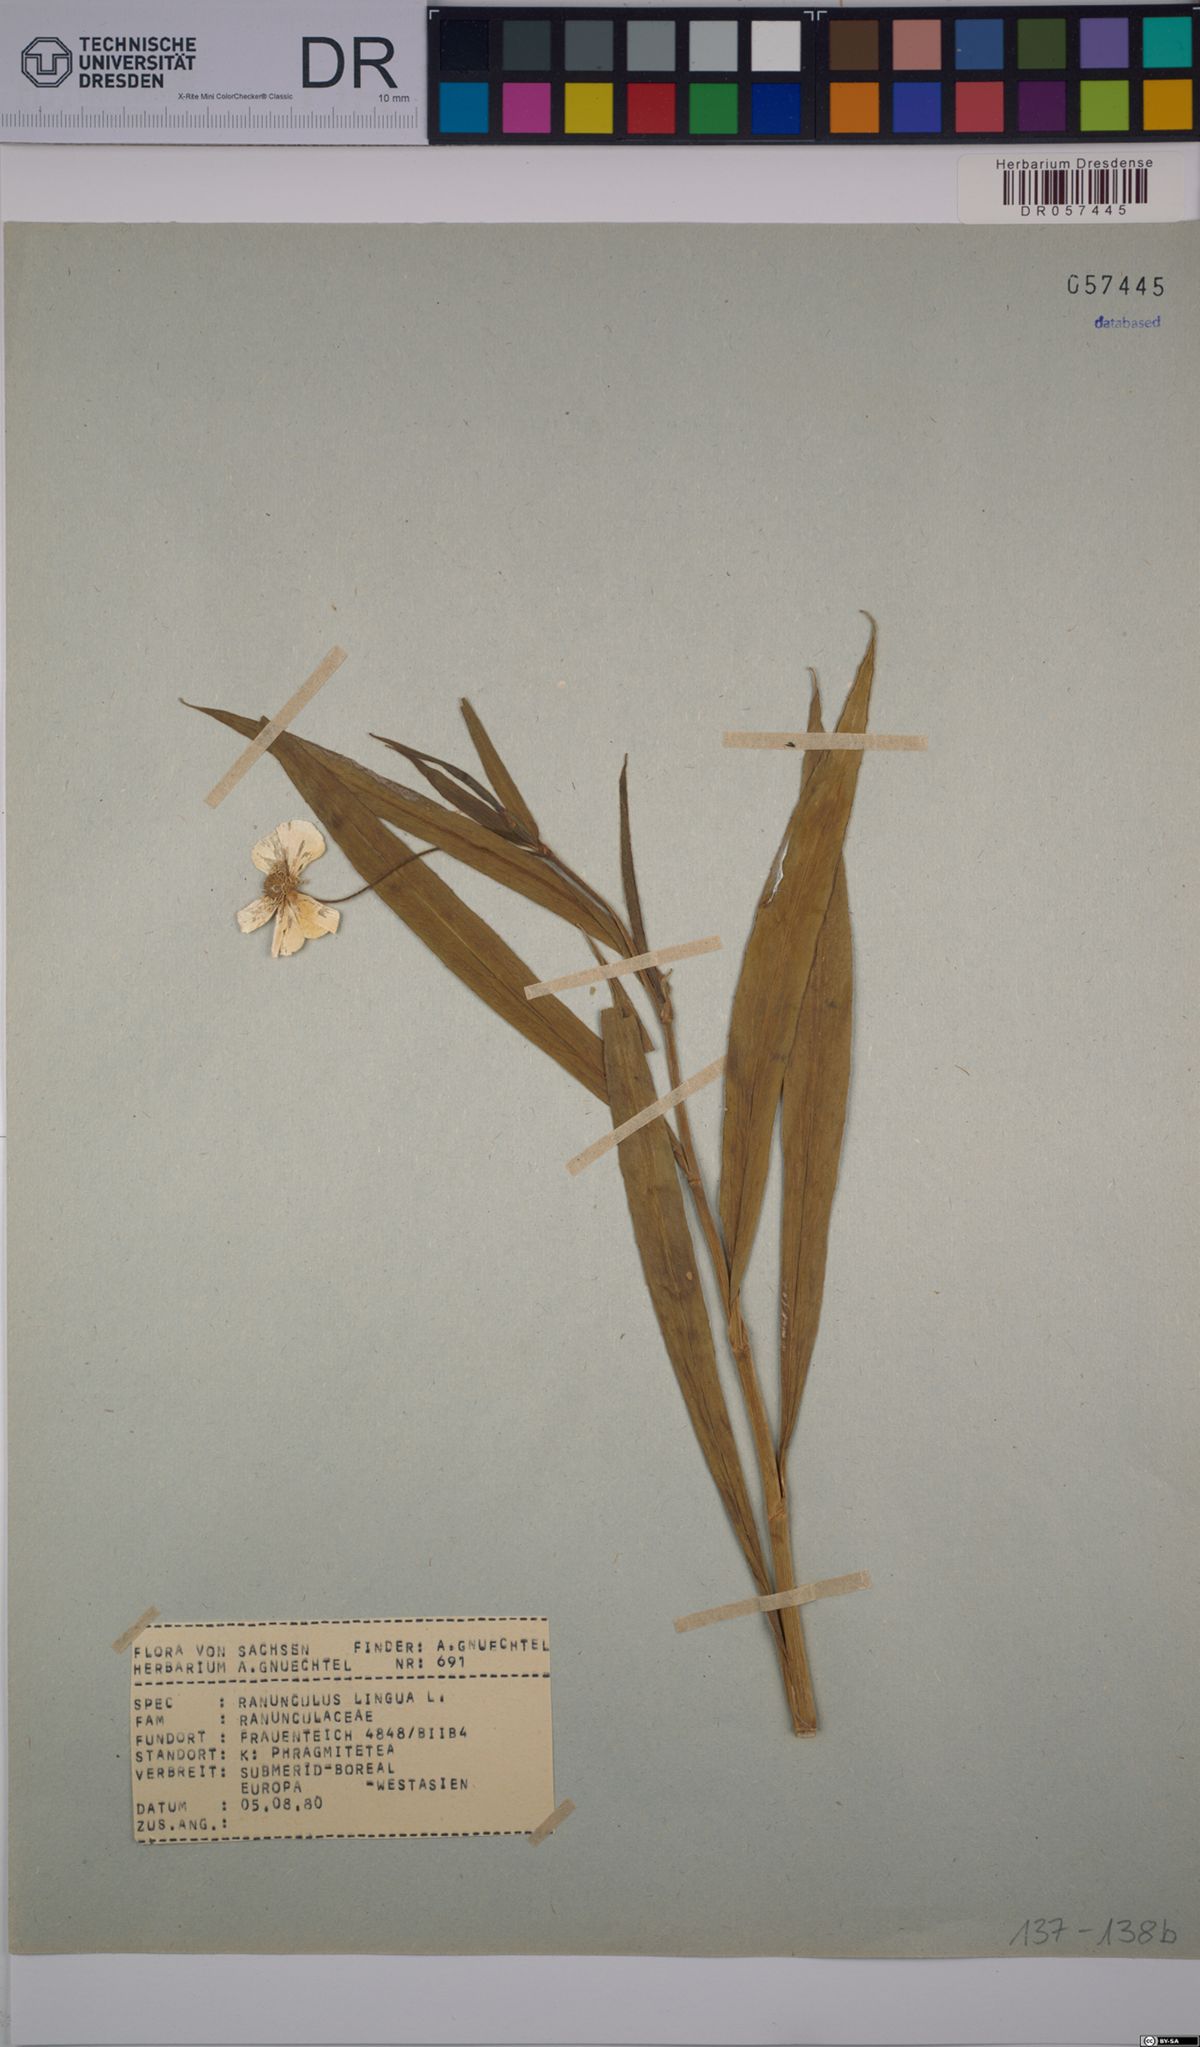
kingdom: Plantae
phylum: Tracheophyta
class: Magnoliopsida
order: Ranunculales
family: Ranunculaceae
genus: Ranunculus
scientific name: Ranunculus lingua
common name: Greater spearwort
